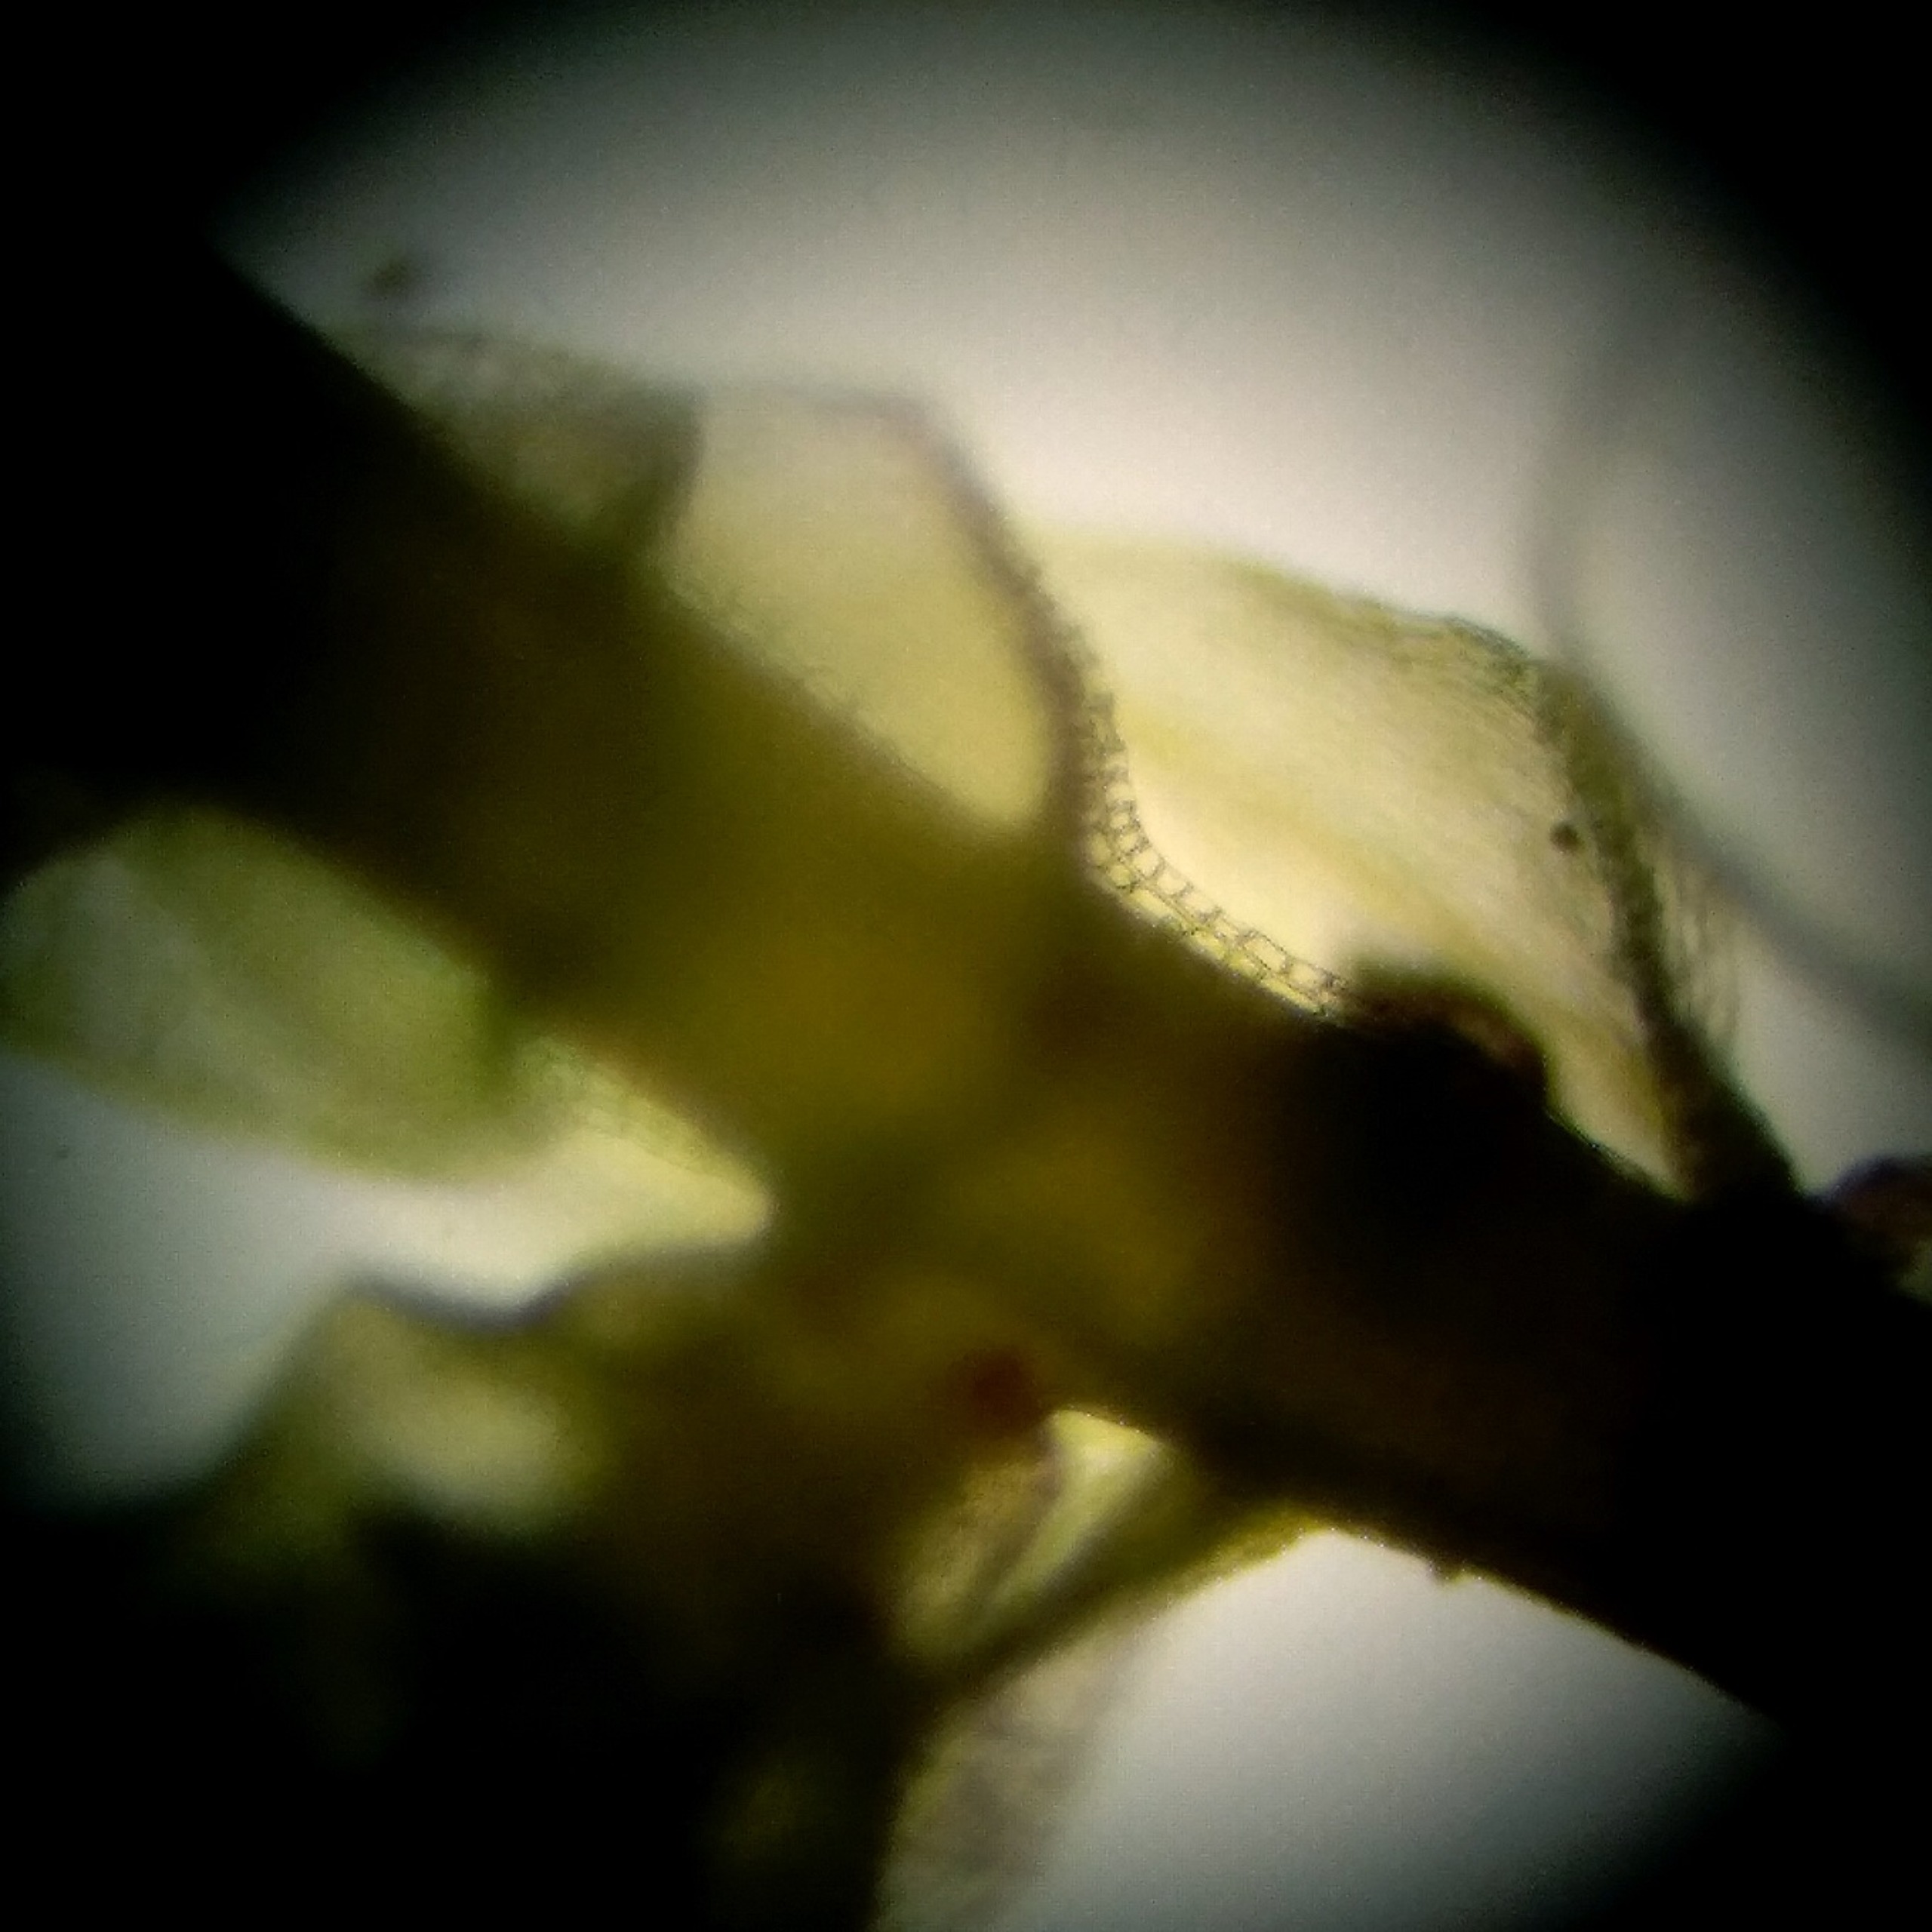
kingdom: Plantae
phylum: Bryophyta
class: Bryopsida
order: Hypnales
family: Brachytheciaceae
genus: Sciuro-hypnum
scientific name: Sciuro-hypnum reflexum
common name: Elle-kortkapsel
